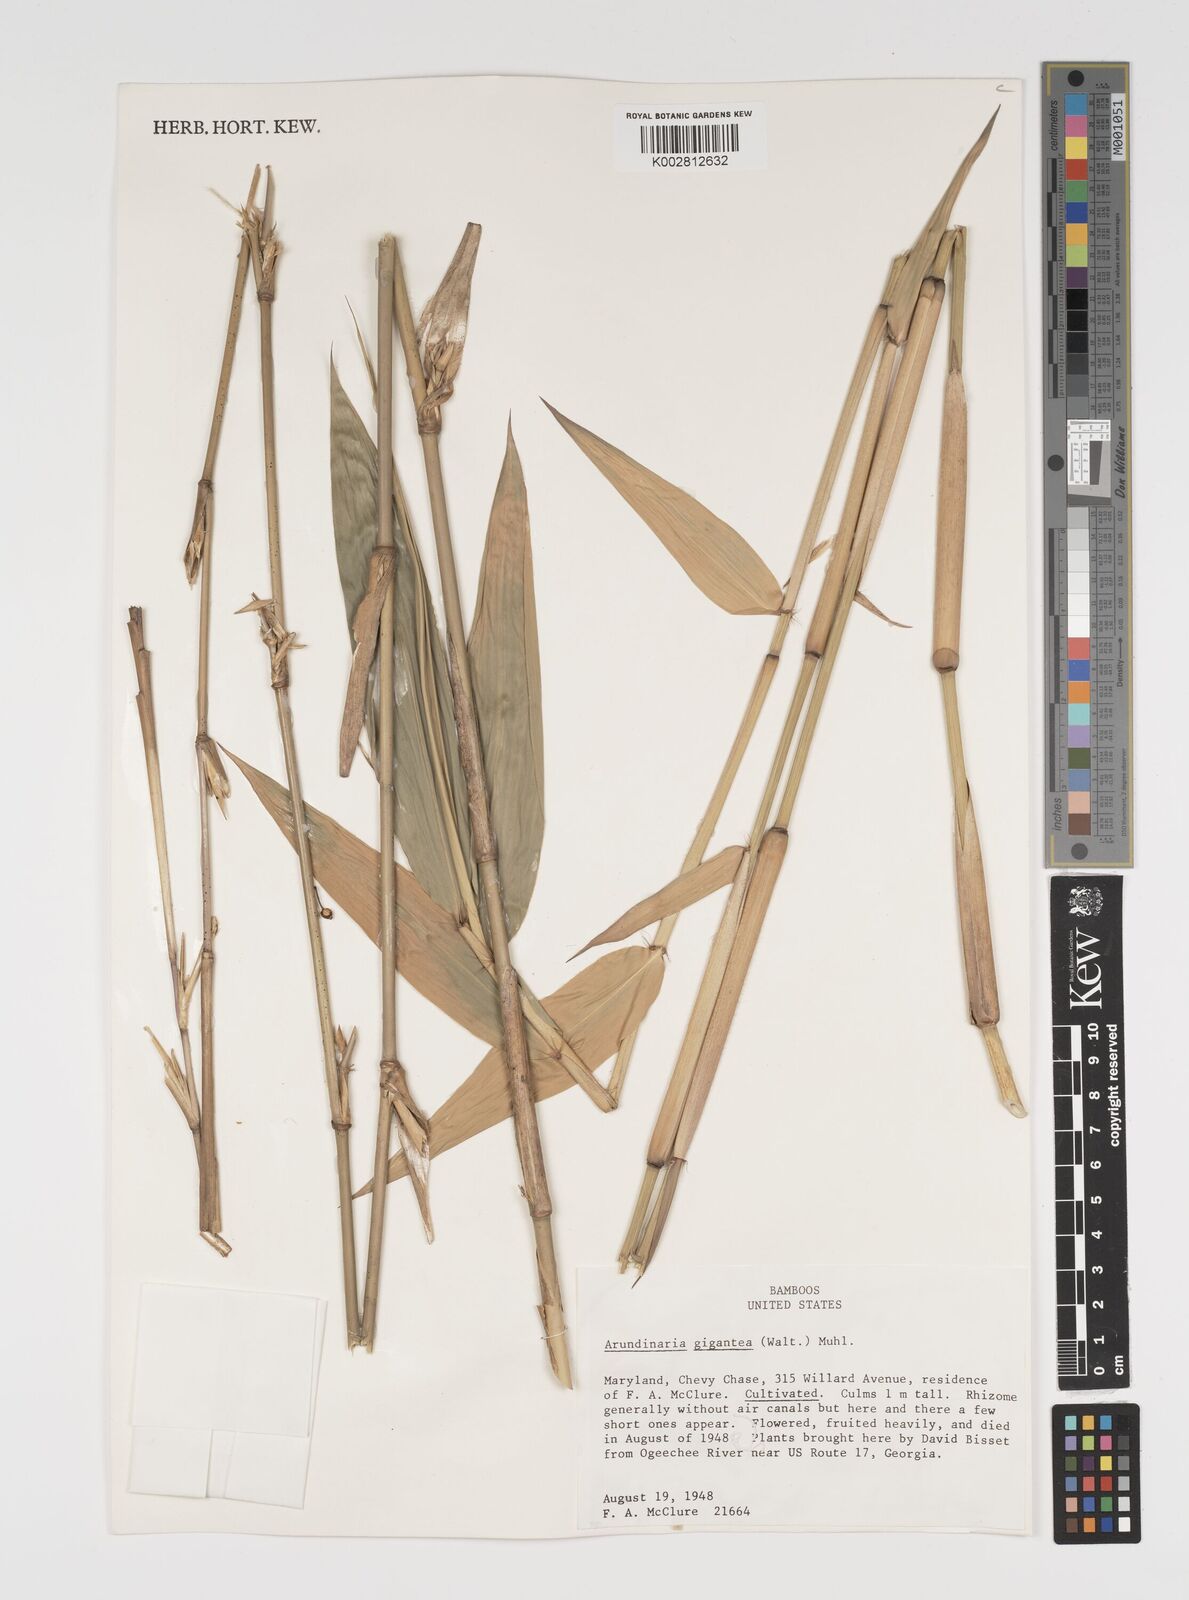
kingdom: Plantae
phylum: Tracheophyta
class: Liliopsida
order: Poales
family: Poaceae
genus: Arundinaria
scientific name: Arundinaria
